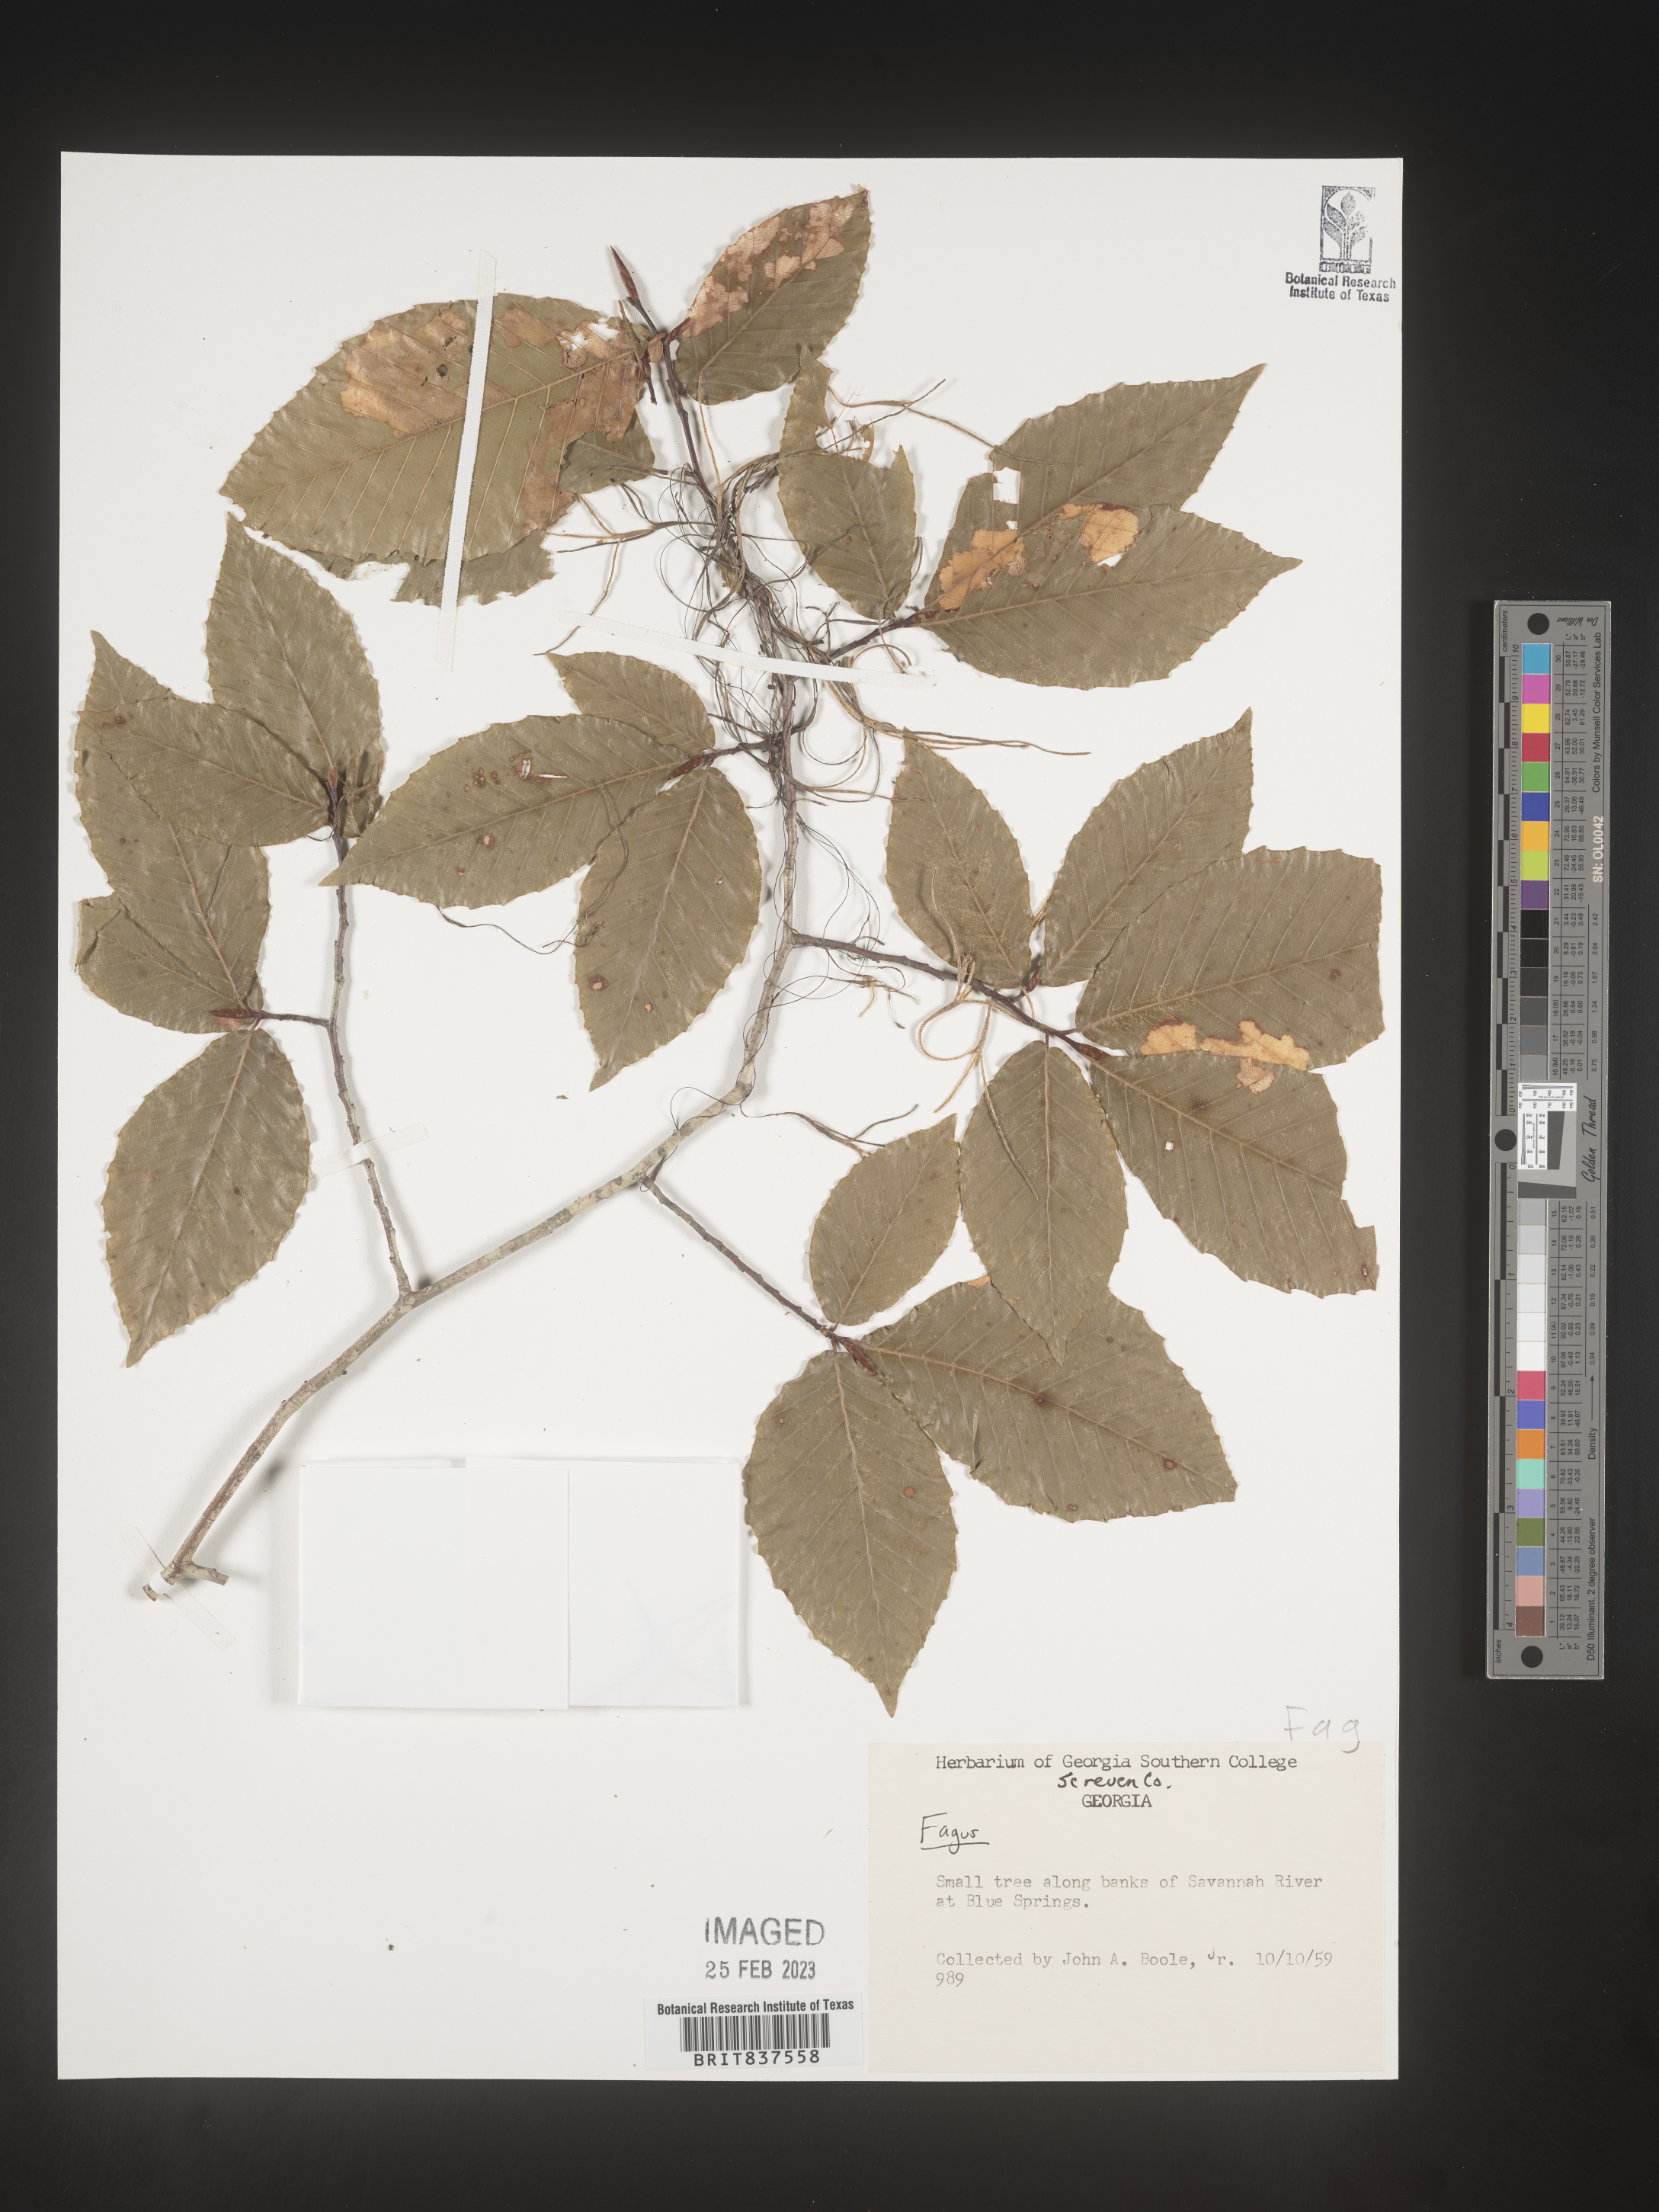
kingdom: Plantae
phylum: Tracheophyta
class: Magnoliopsida
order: Fagales
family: Fagaceae
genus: Fagus
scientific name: Fagus grandifolia
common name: American beech
